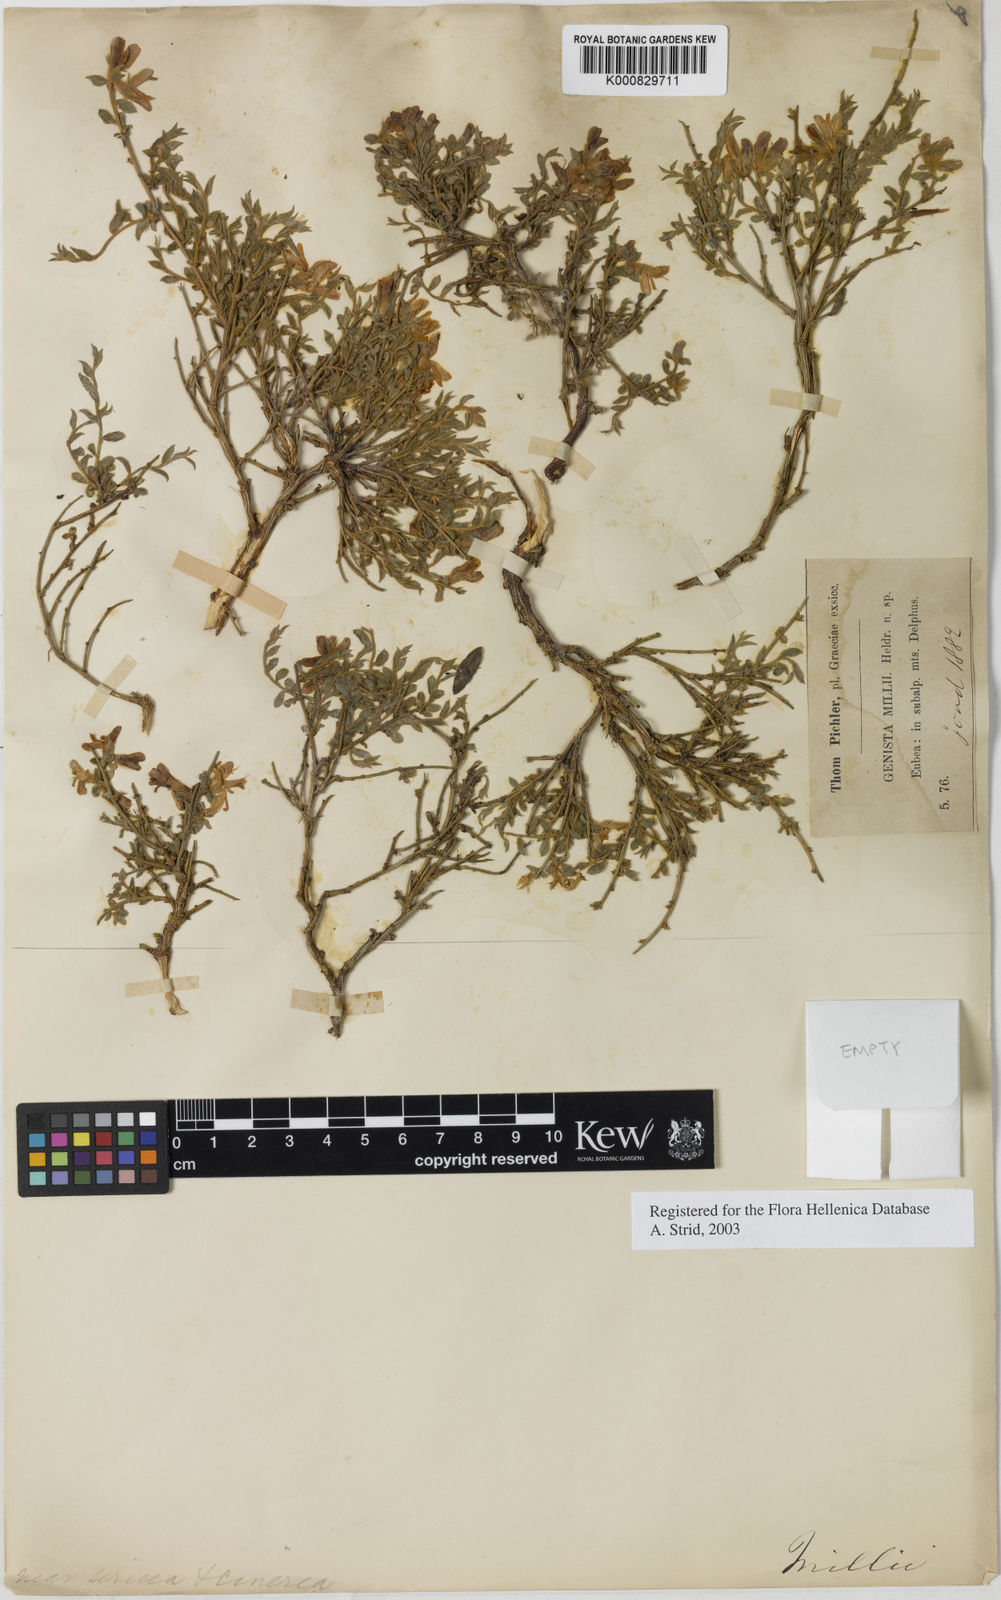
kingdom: Plantae
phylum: Tracheophyta
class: Magnoliopsida
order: Fabales
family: Fabaceae
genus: Genista
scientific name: Genista millii
